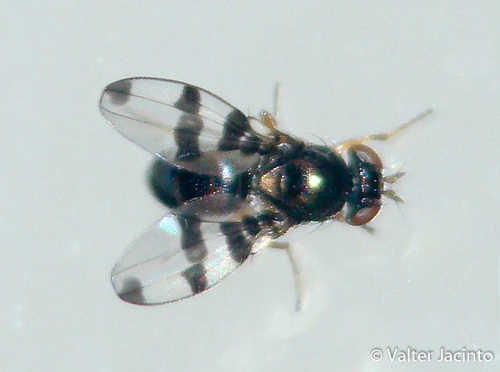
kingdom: Animalia
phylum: Arthropoda
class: Insecta
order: Diptera
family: Ephydridae
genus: Diasemocera
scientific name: Diasemocera maritima
